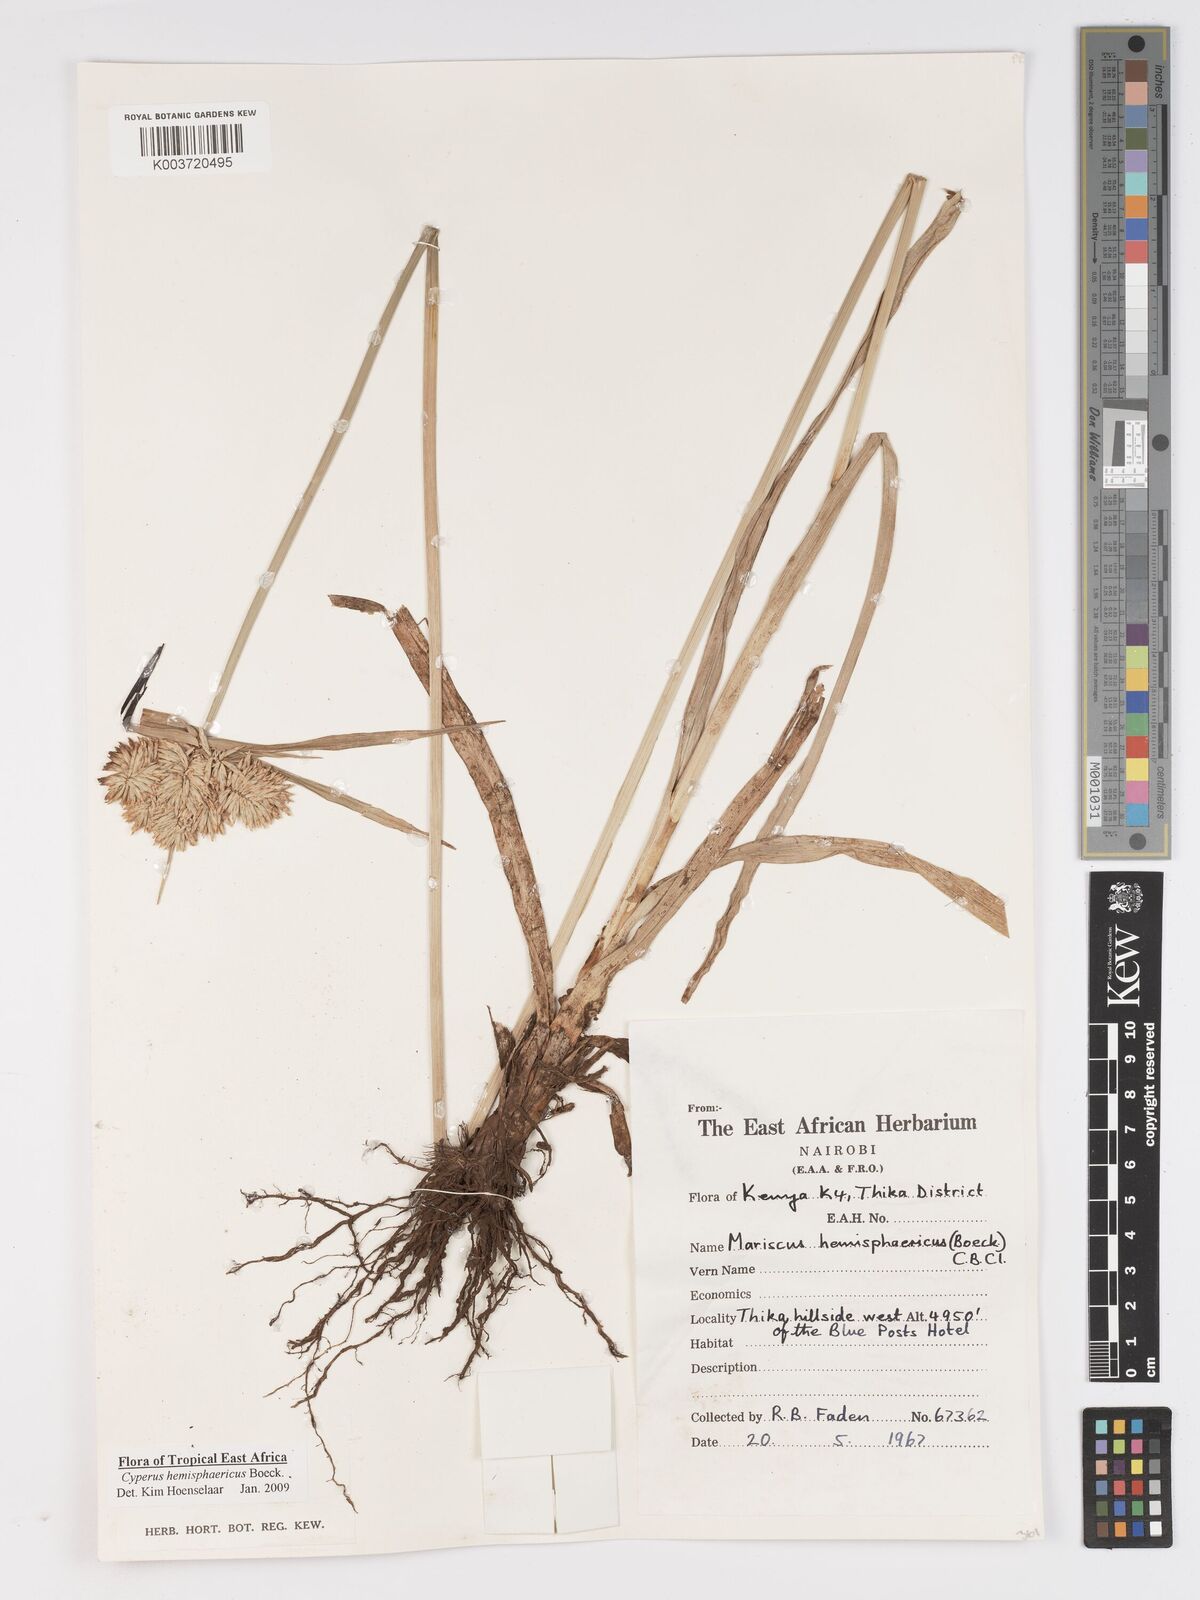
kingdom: Plantae
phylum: Tracheophyta
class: Liliopsida
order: Poales
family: Cyperaceae
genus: Cyperus
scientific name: Cyperus hemisphaericus
